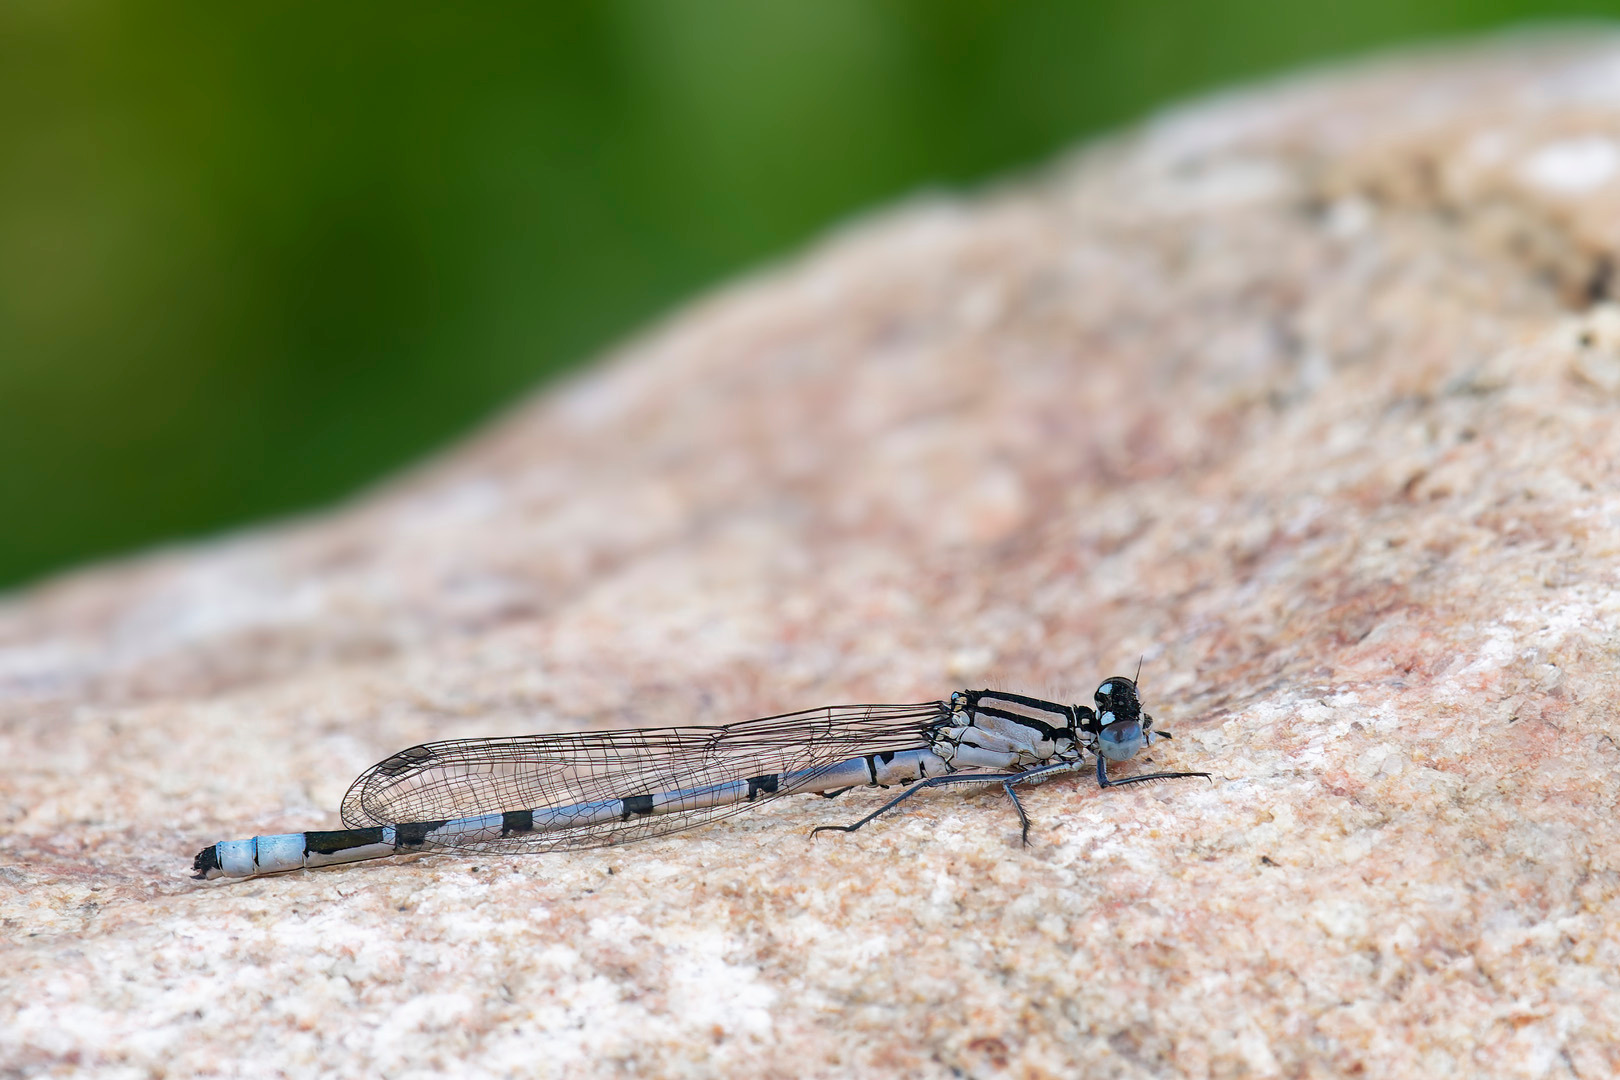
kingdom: Animalia
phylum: Arthropoda
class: Insecta
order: Odonata
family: Coenagrionidae
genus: Enallagma
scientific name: Enallagma cyathigerum
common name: Almindelig vandnymfe
